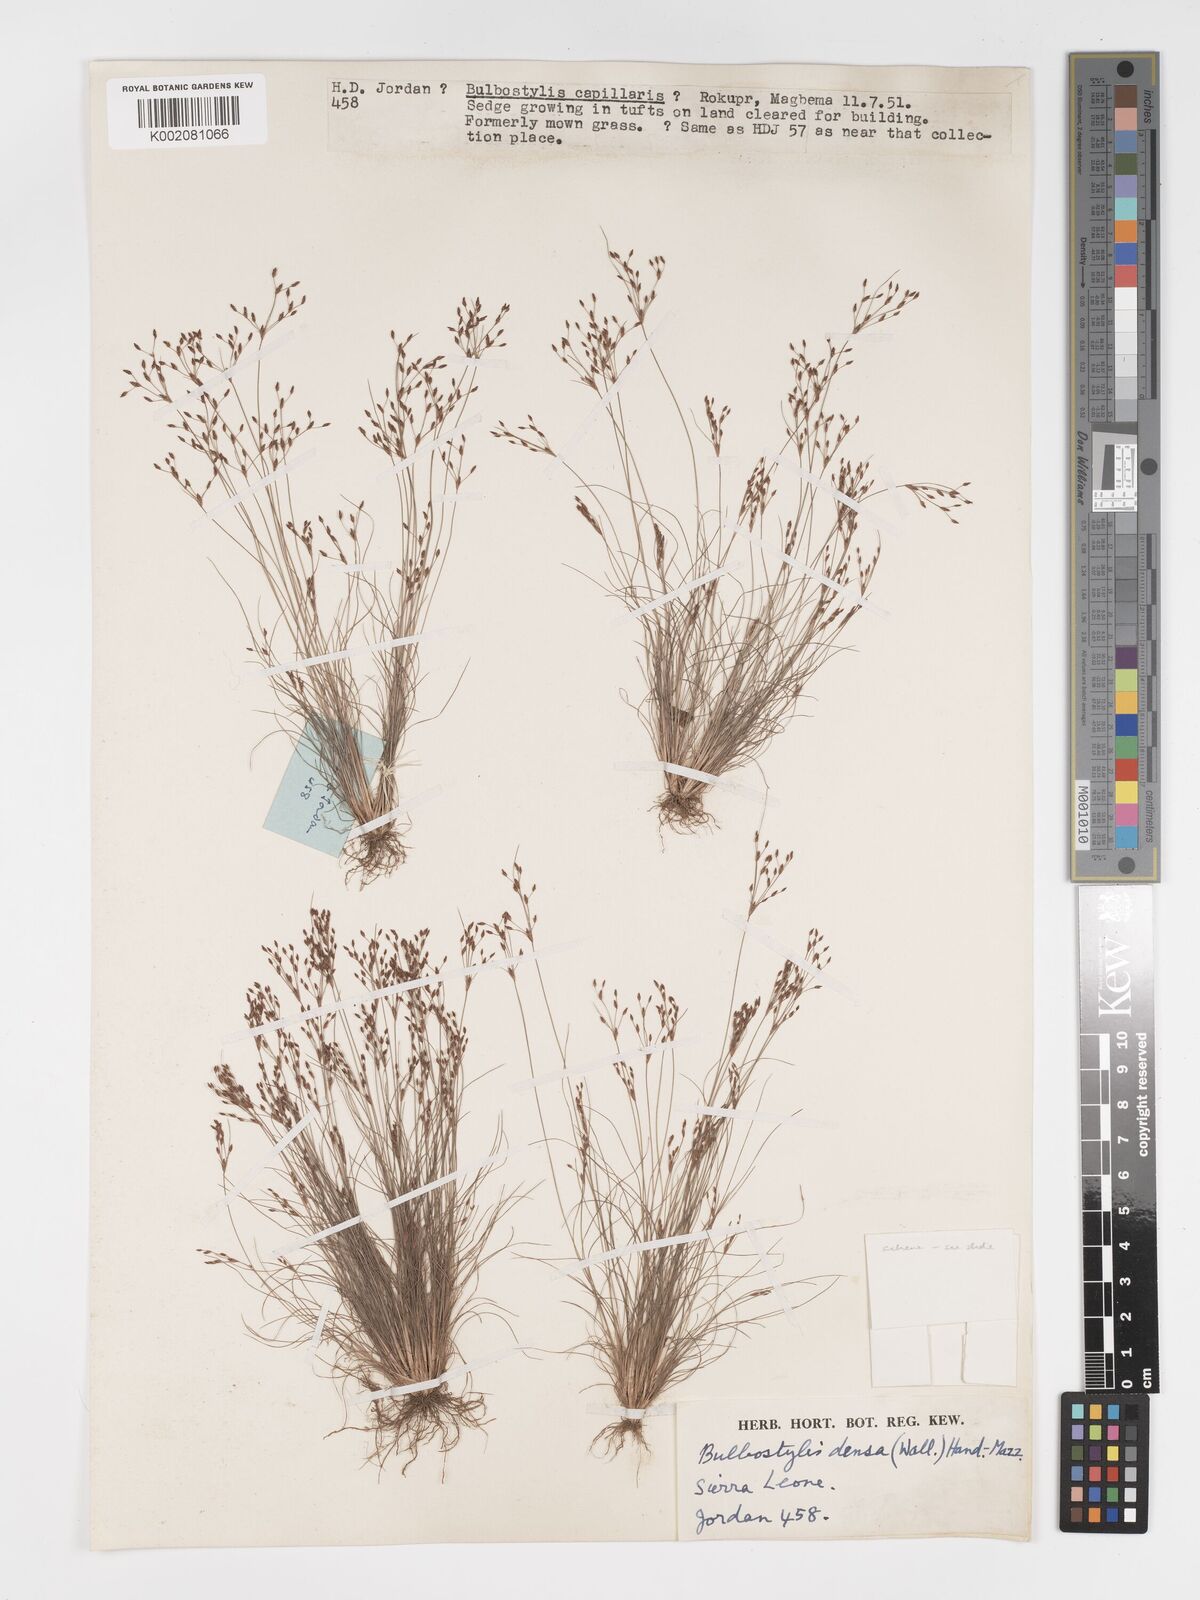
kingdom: Plantae
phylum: Tracheophyta
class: Liliopsida
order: Poales
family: Cyperaceae
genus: Bulbostylis
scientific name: Bulbostylis densa
